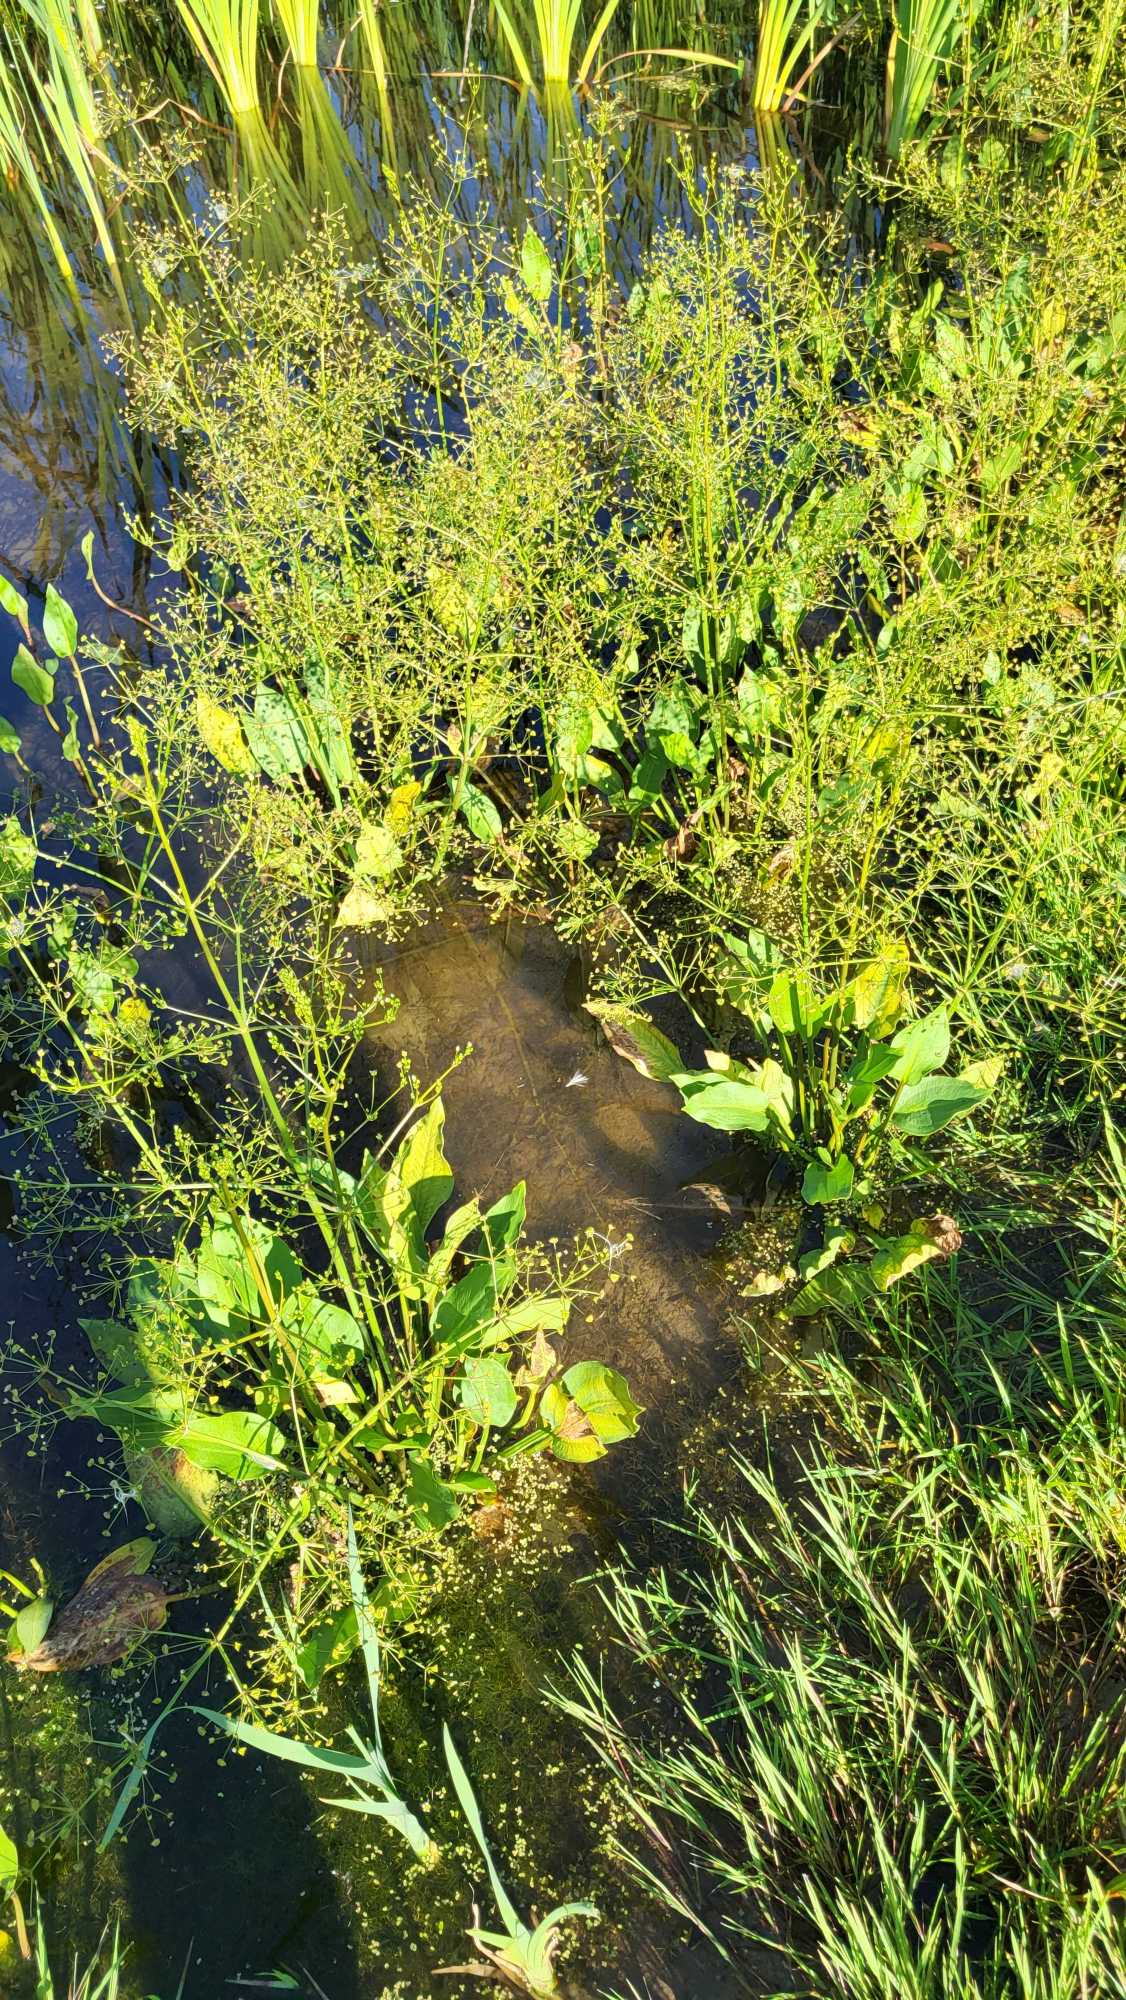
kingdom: Plantae
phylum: Tracheophyta
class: Liliopsida
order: Alismatales
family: Alismataceae
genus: Alisma
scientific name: Alisma plantago-aquatica
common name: Vejbred-skeblad
